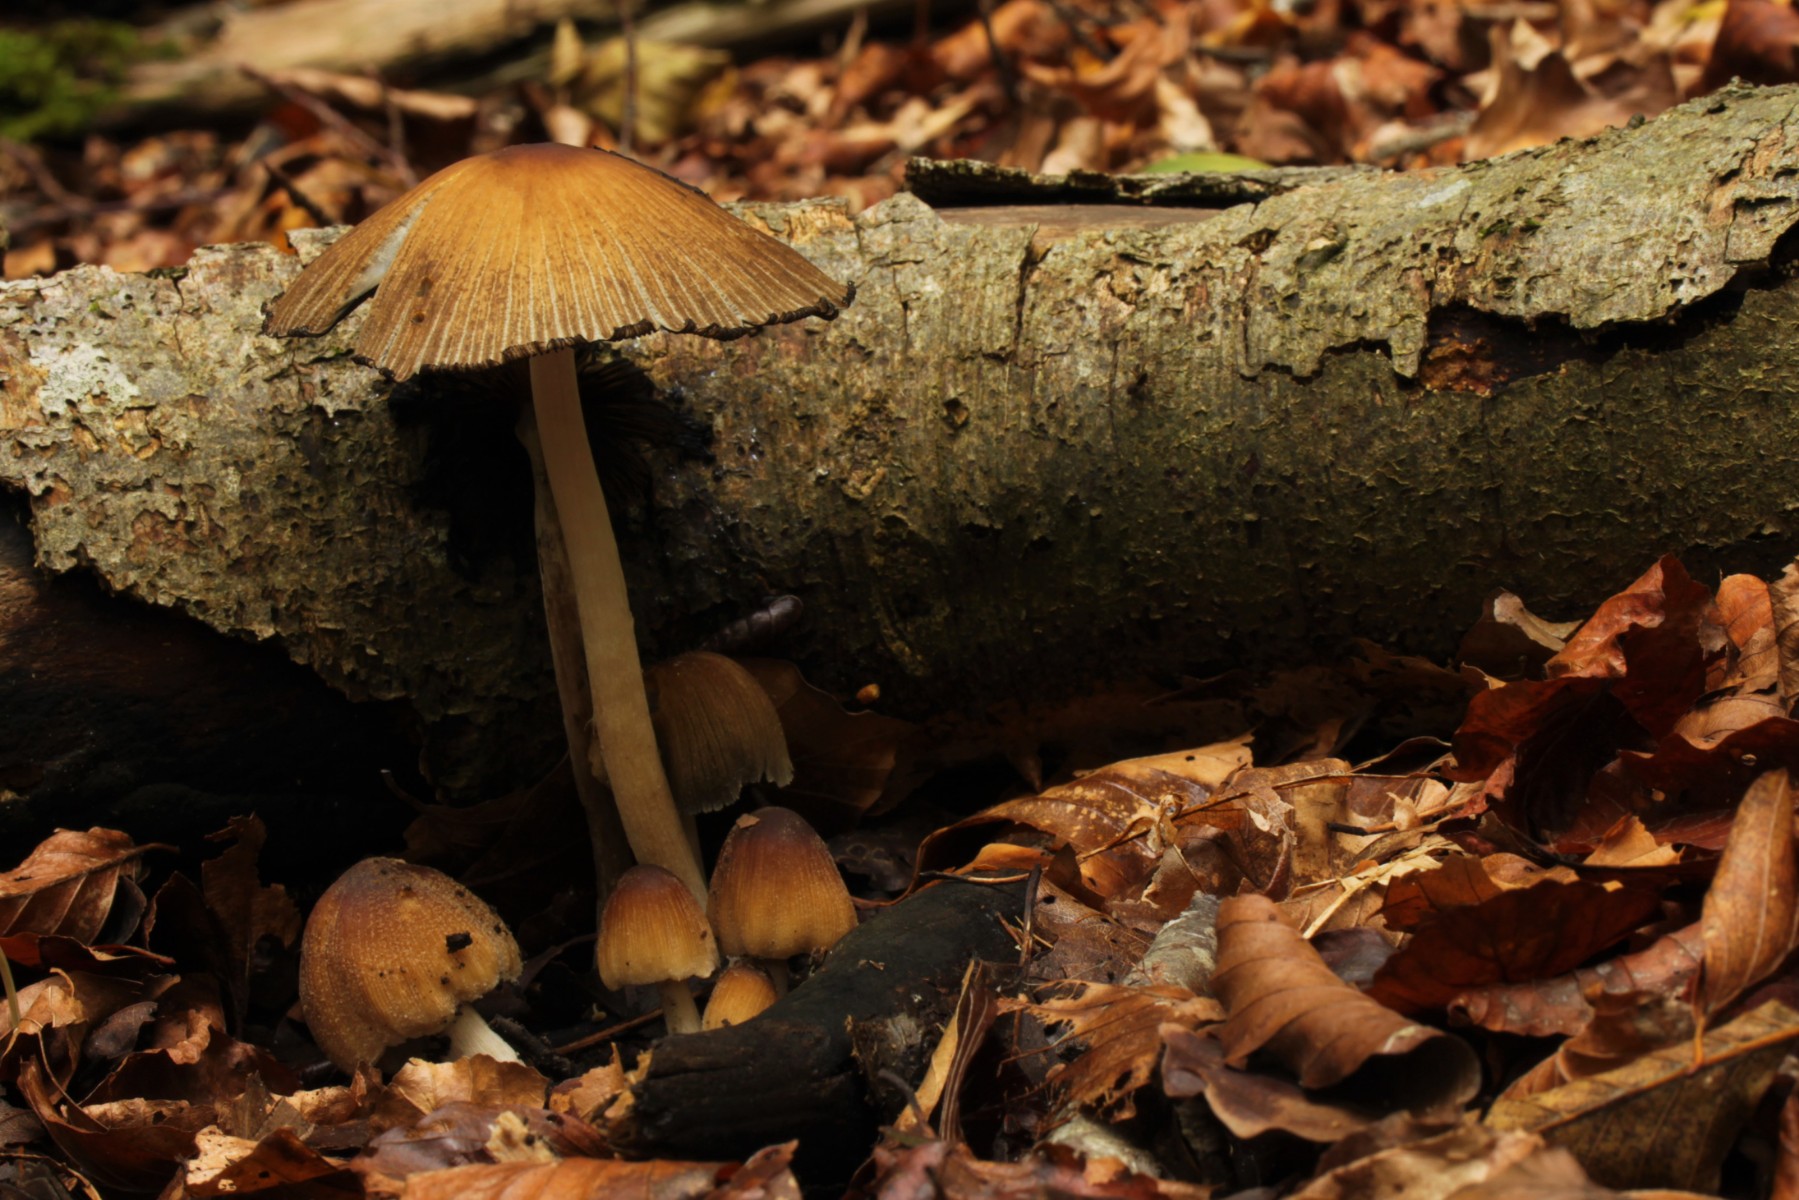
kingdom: Fungi
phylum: Basidiomycota
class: Agaricomycetes
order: Agaricales
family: Psathyrellaceae
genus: Coprinellus
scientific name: Coprinellus
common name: blækhat
